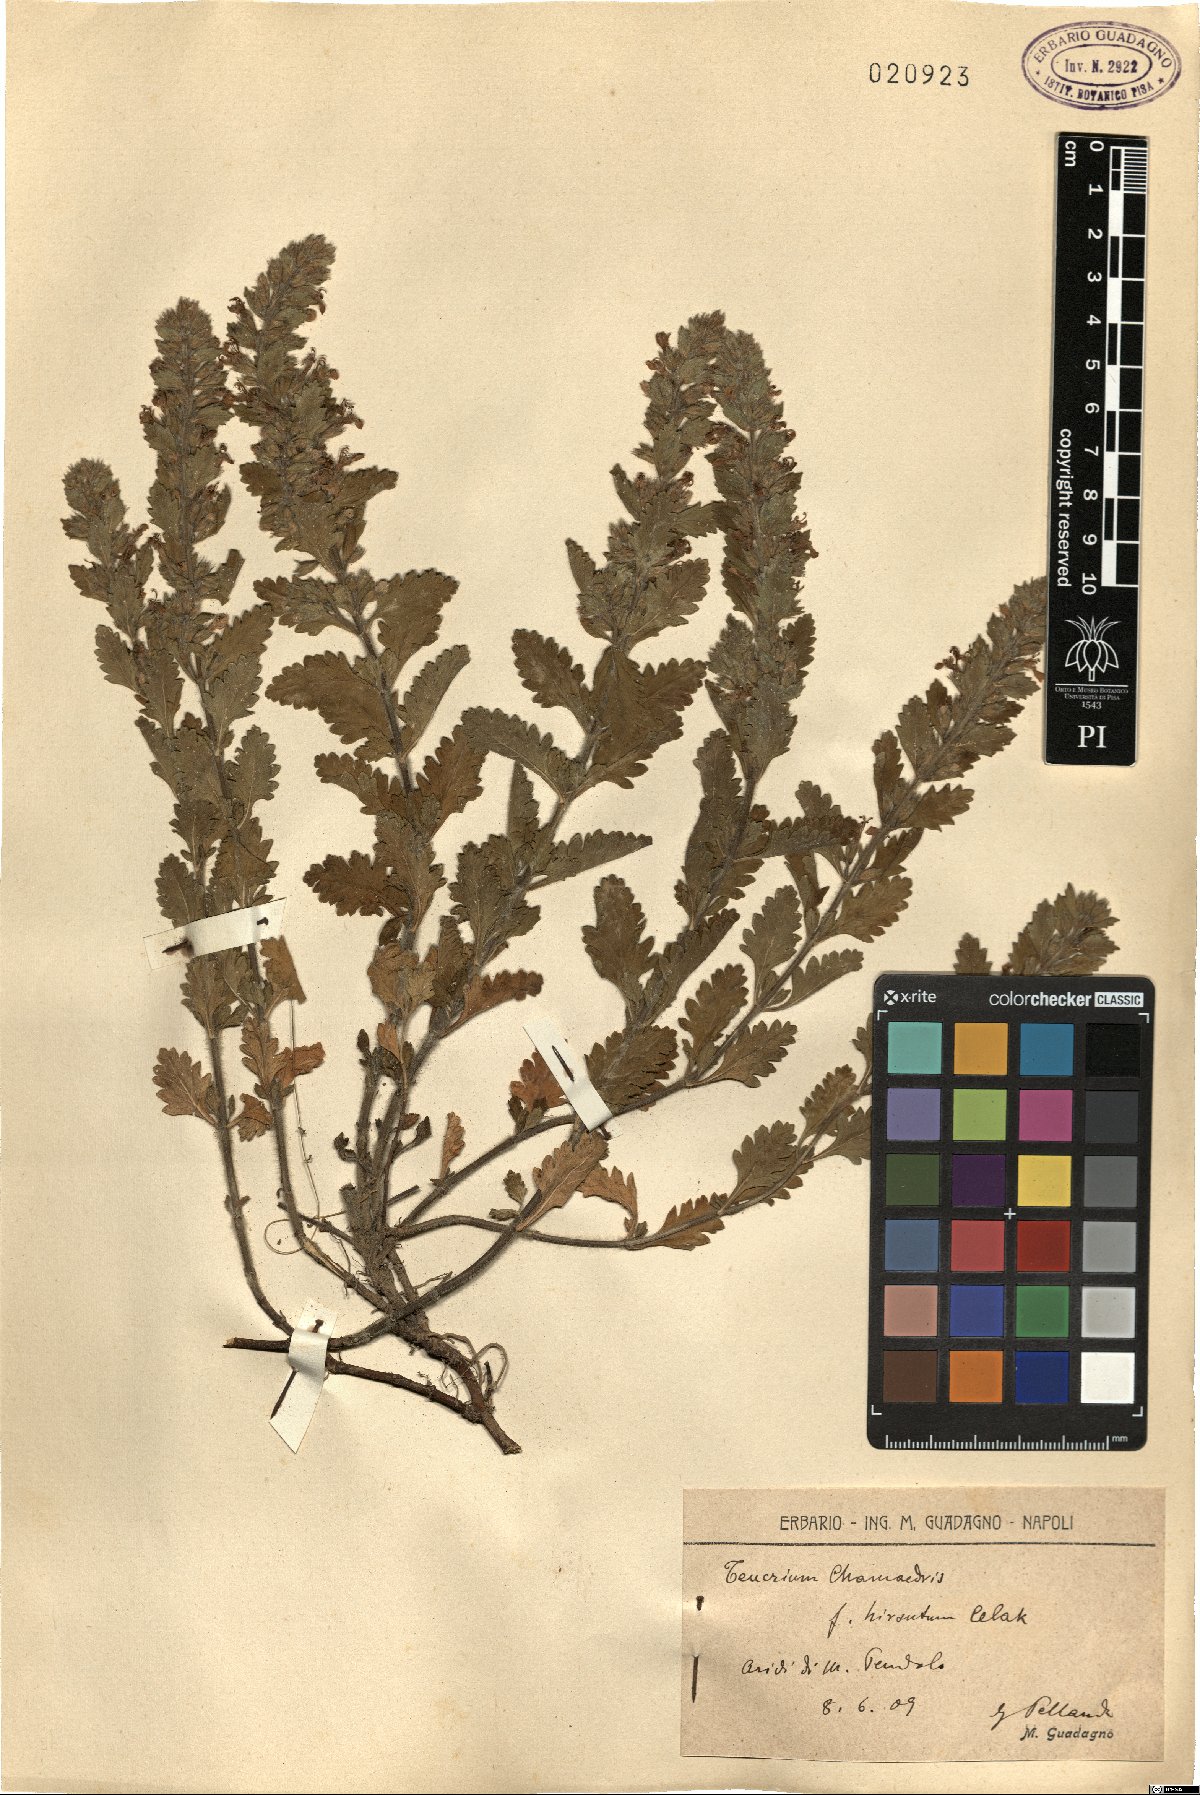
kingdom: Plantae
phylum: Tracheophyta
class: Magnoliopsida
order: Lamiales
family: Lamiaceae
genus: Teucrium
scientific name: Teucrium chamaedrys
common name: Wall germander
